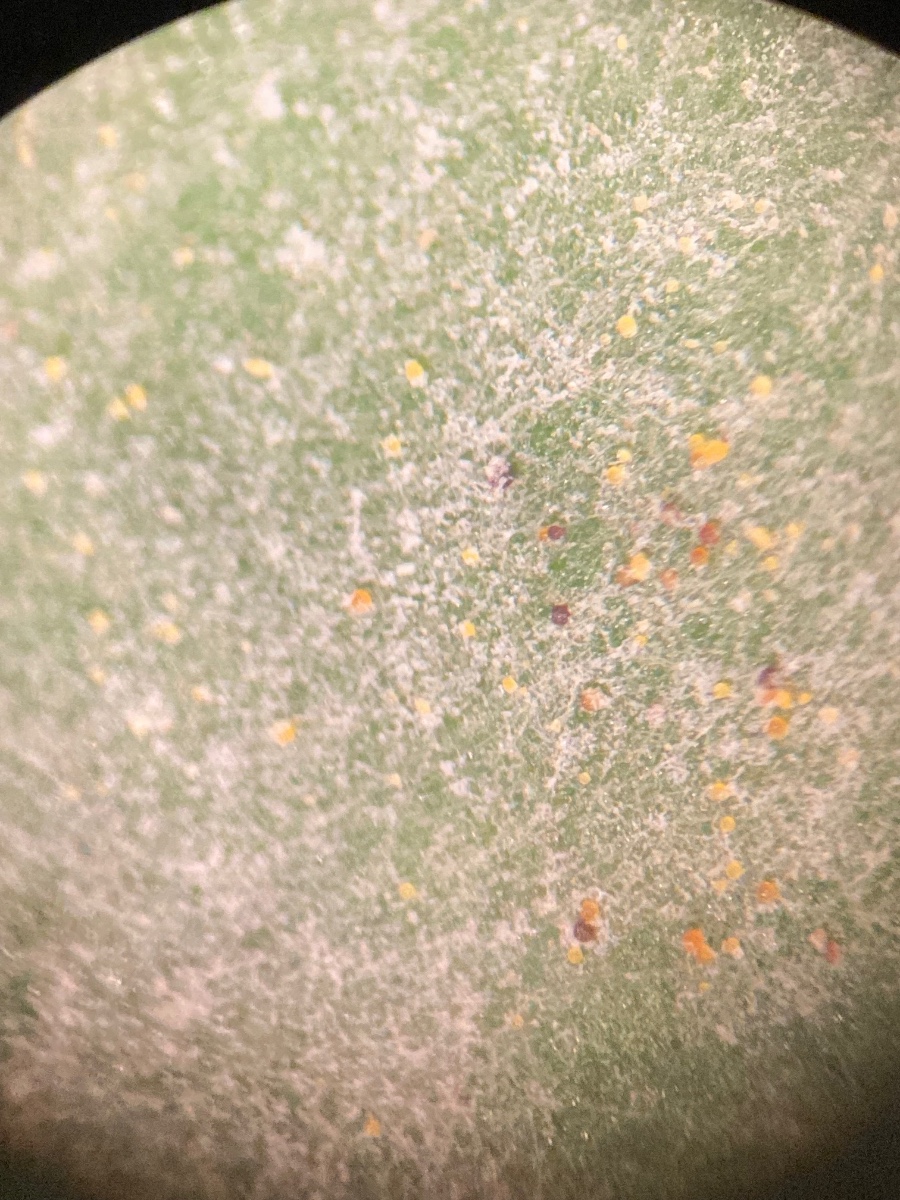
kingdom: Fungi
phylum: Ascomycota
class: Leotiomycetes
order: Helotiales
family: Erysiphaceae
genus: Erysiphe
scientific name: Erysiphe syringae-japonicae
